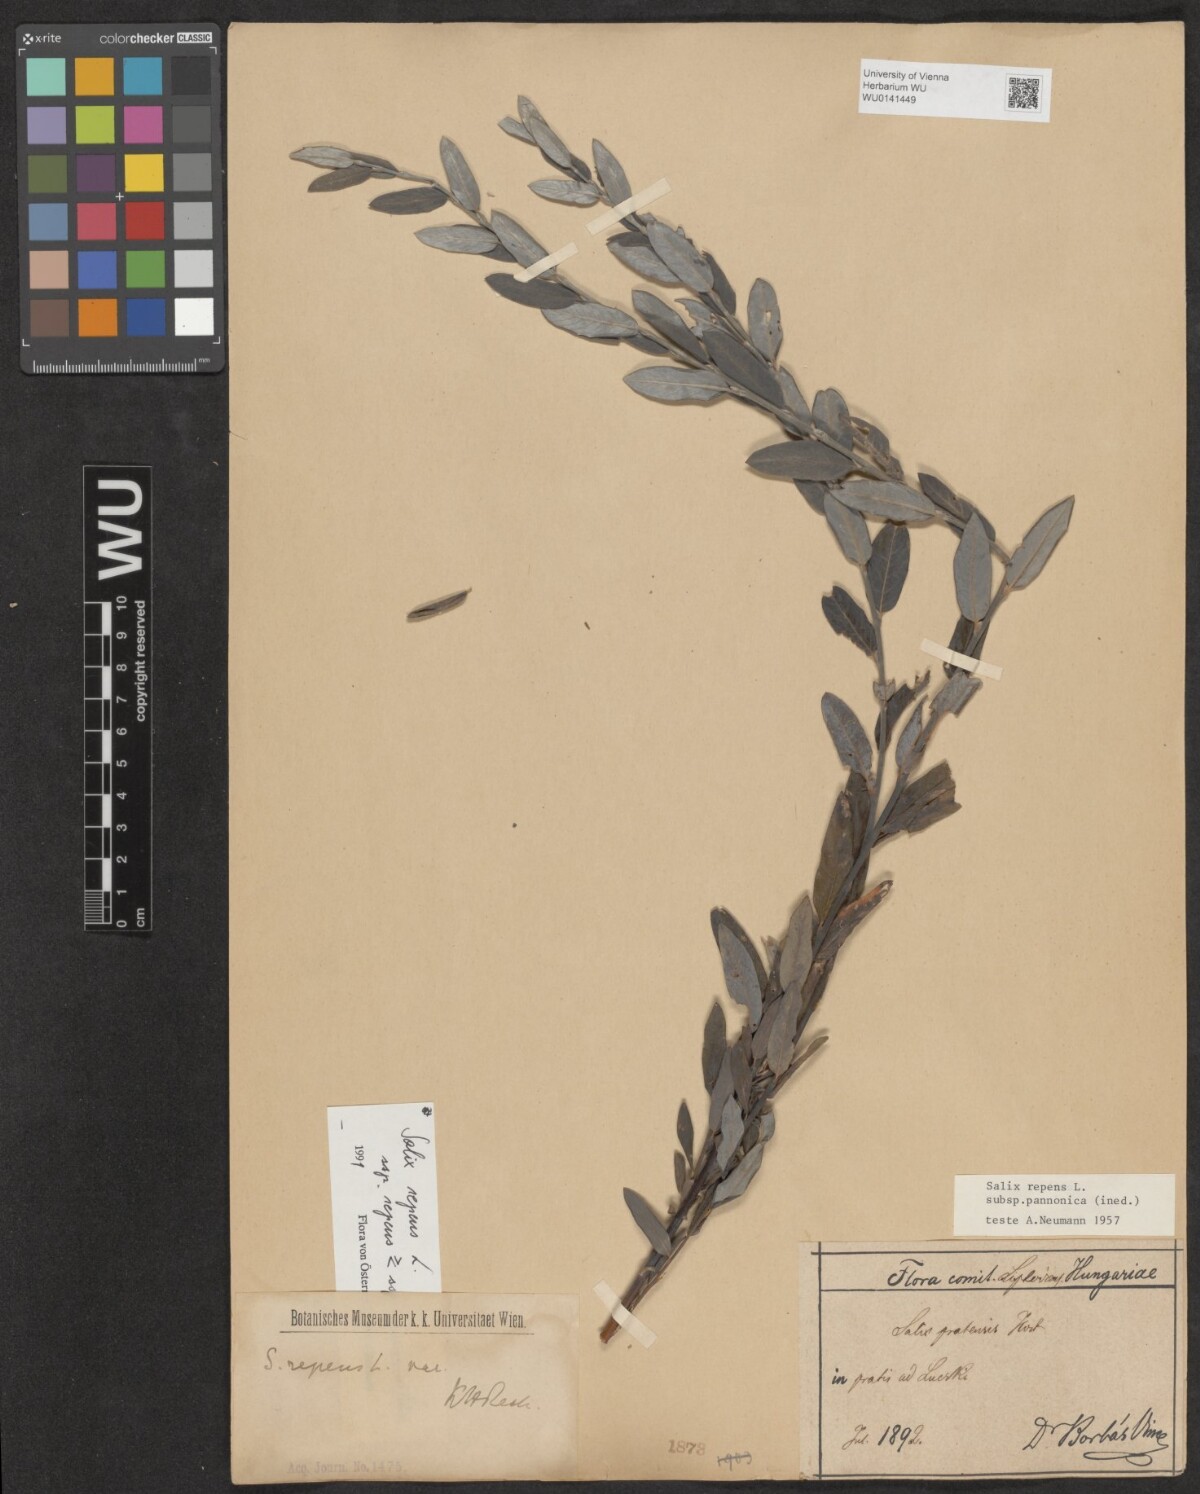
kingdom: Plantae
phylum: Tracheophyta
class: Magnoliopsida
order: Malpighiales
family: Salicaceae
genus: Salix
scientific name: Salix repens
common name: Creeping willow
